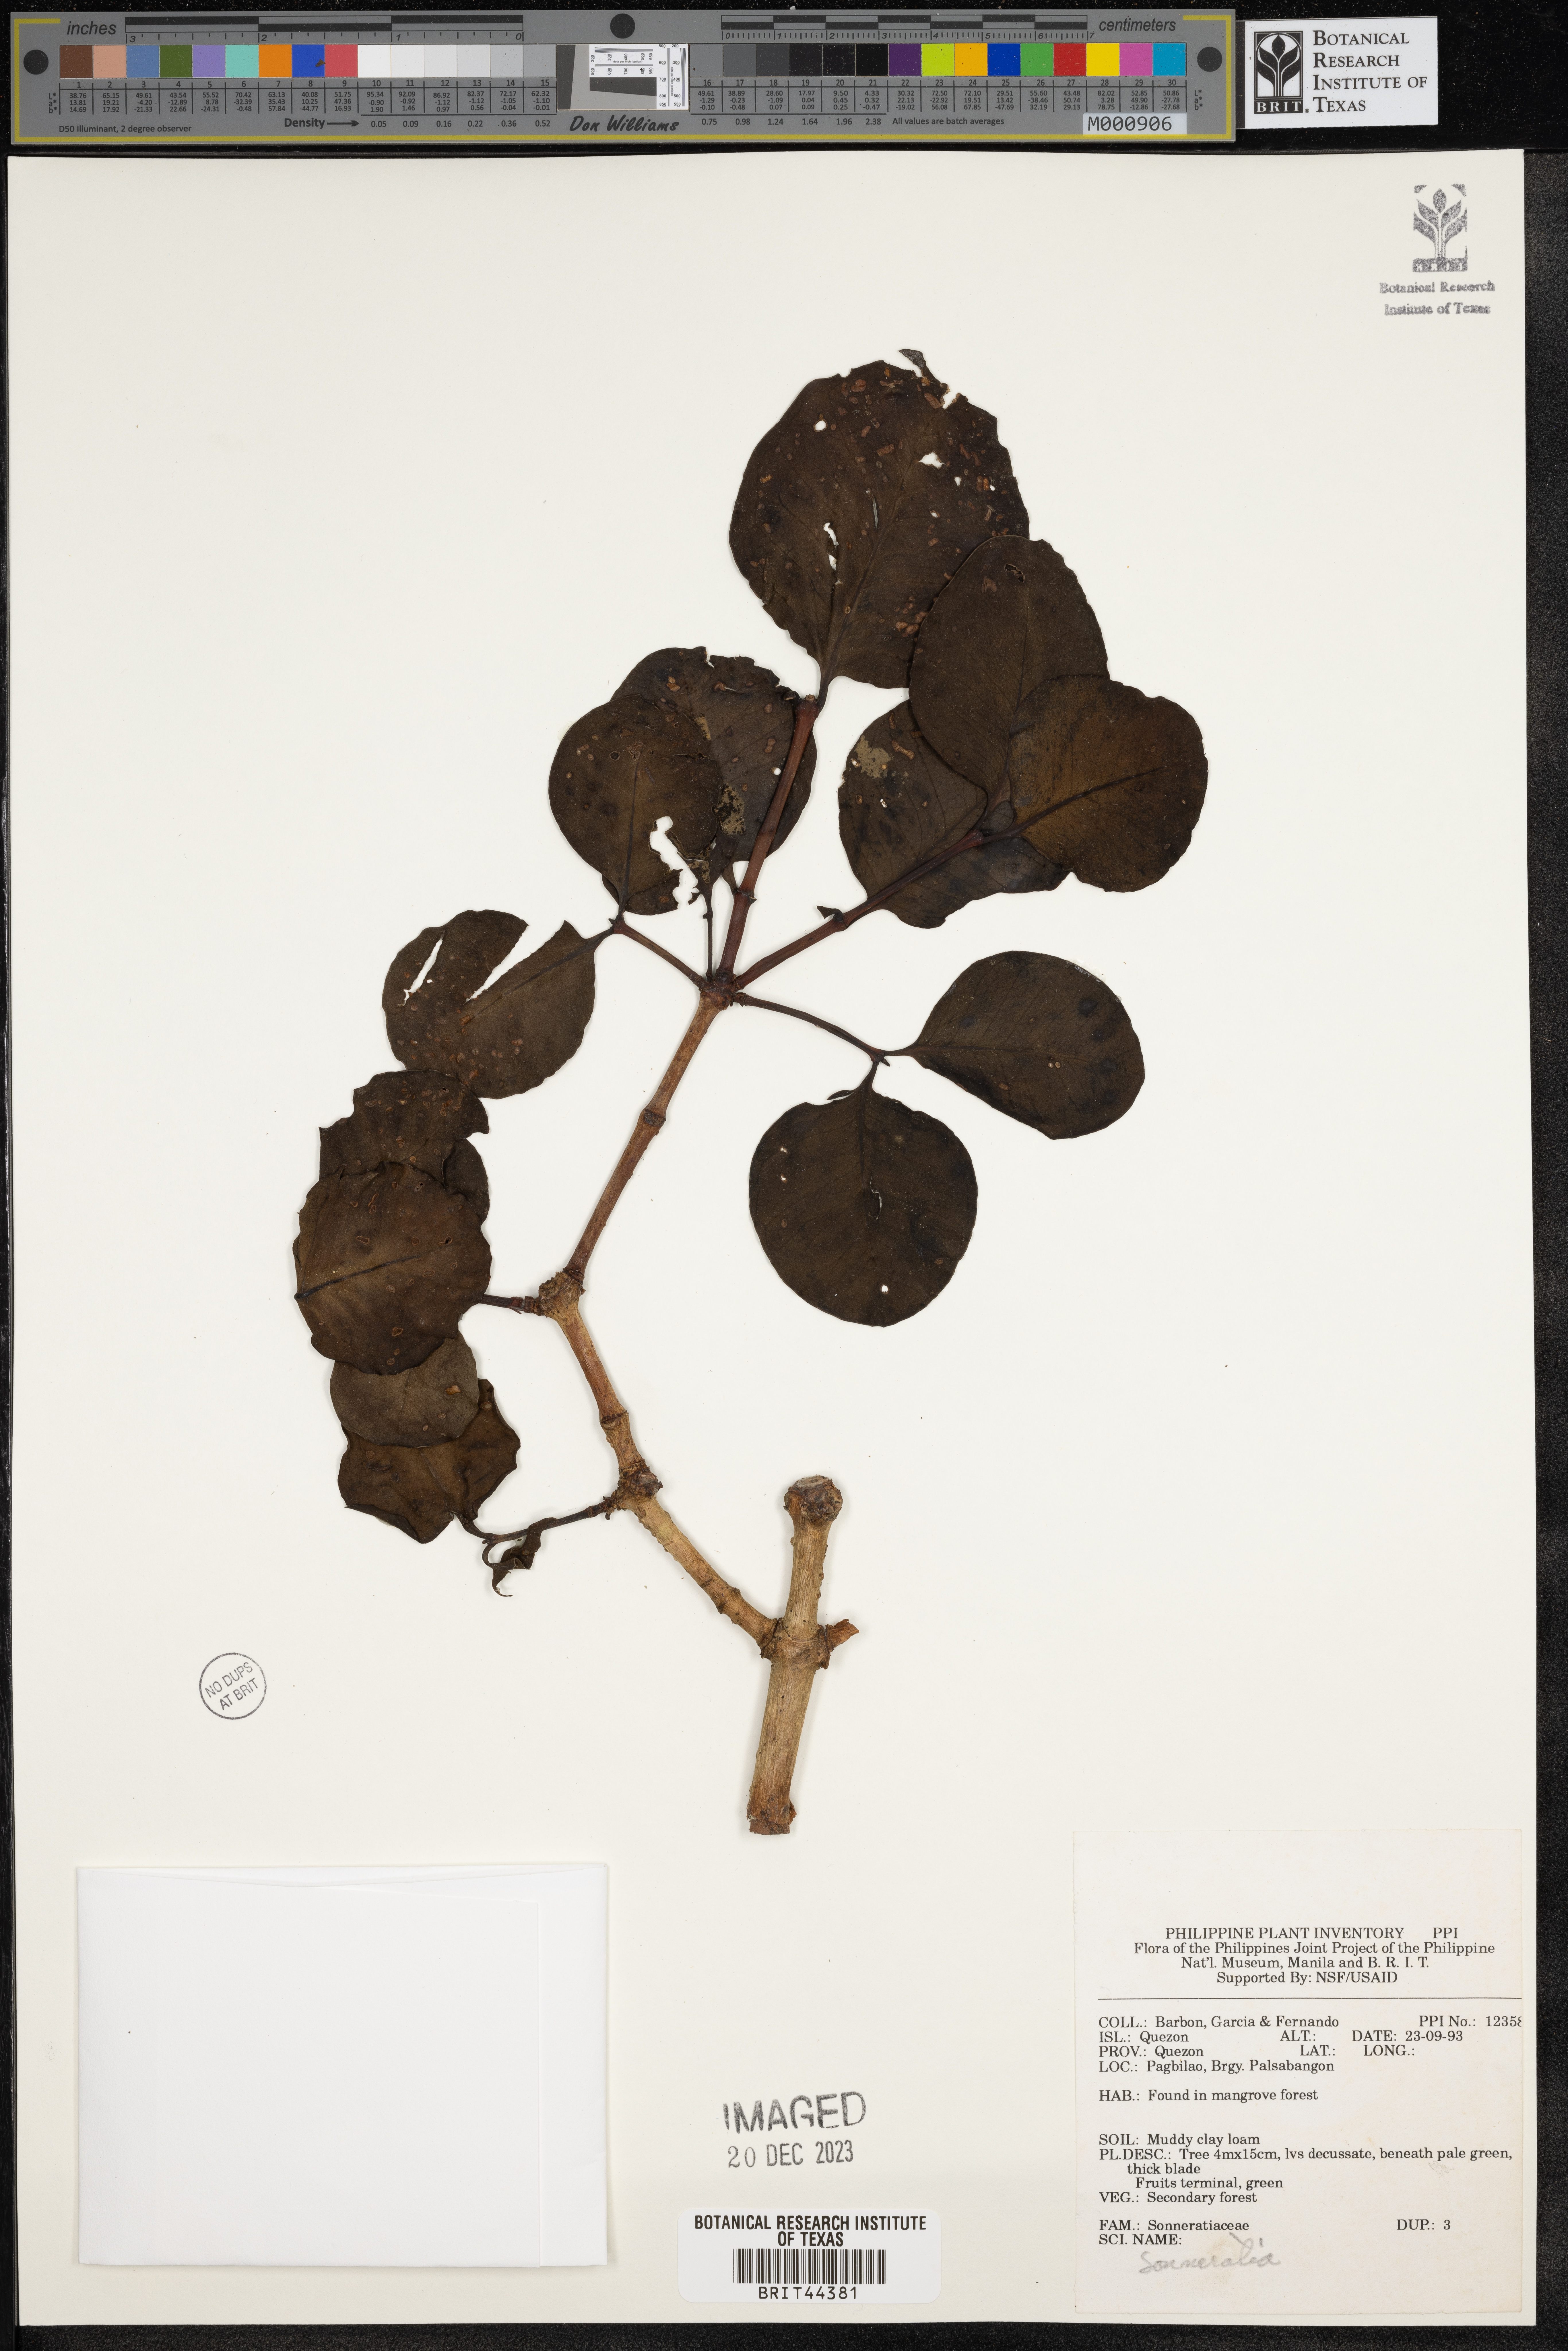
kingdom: Plantae
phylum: Tracheophyta
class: Magnoliopsida
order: Myrtales
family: Lythraceae
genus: Sonneratia
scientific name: Sonneratia
